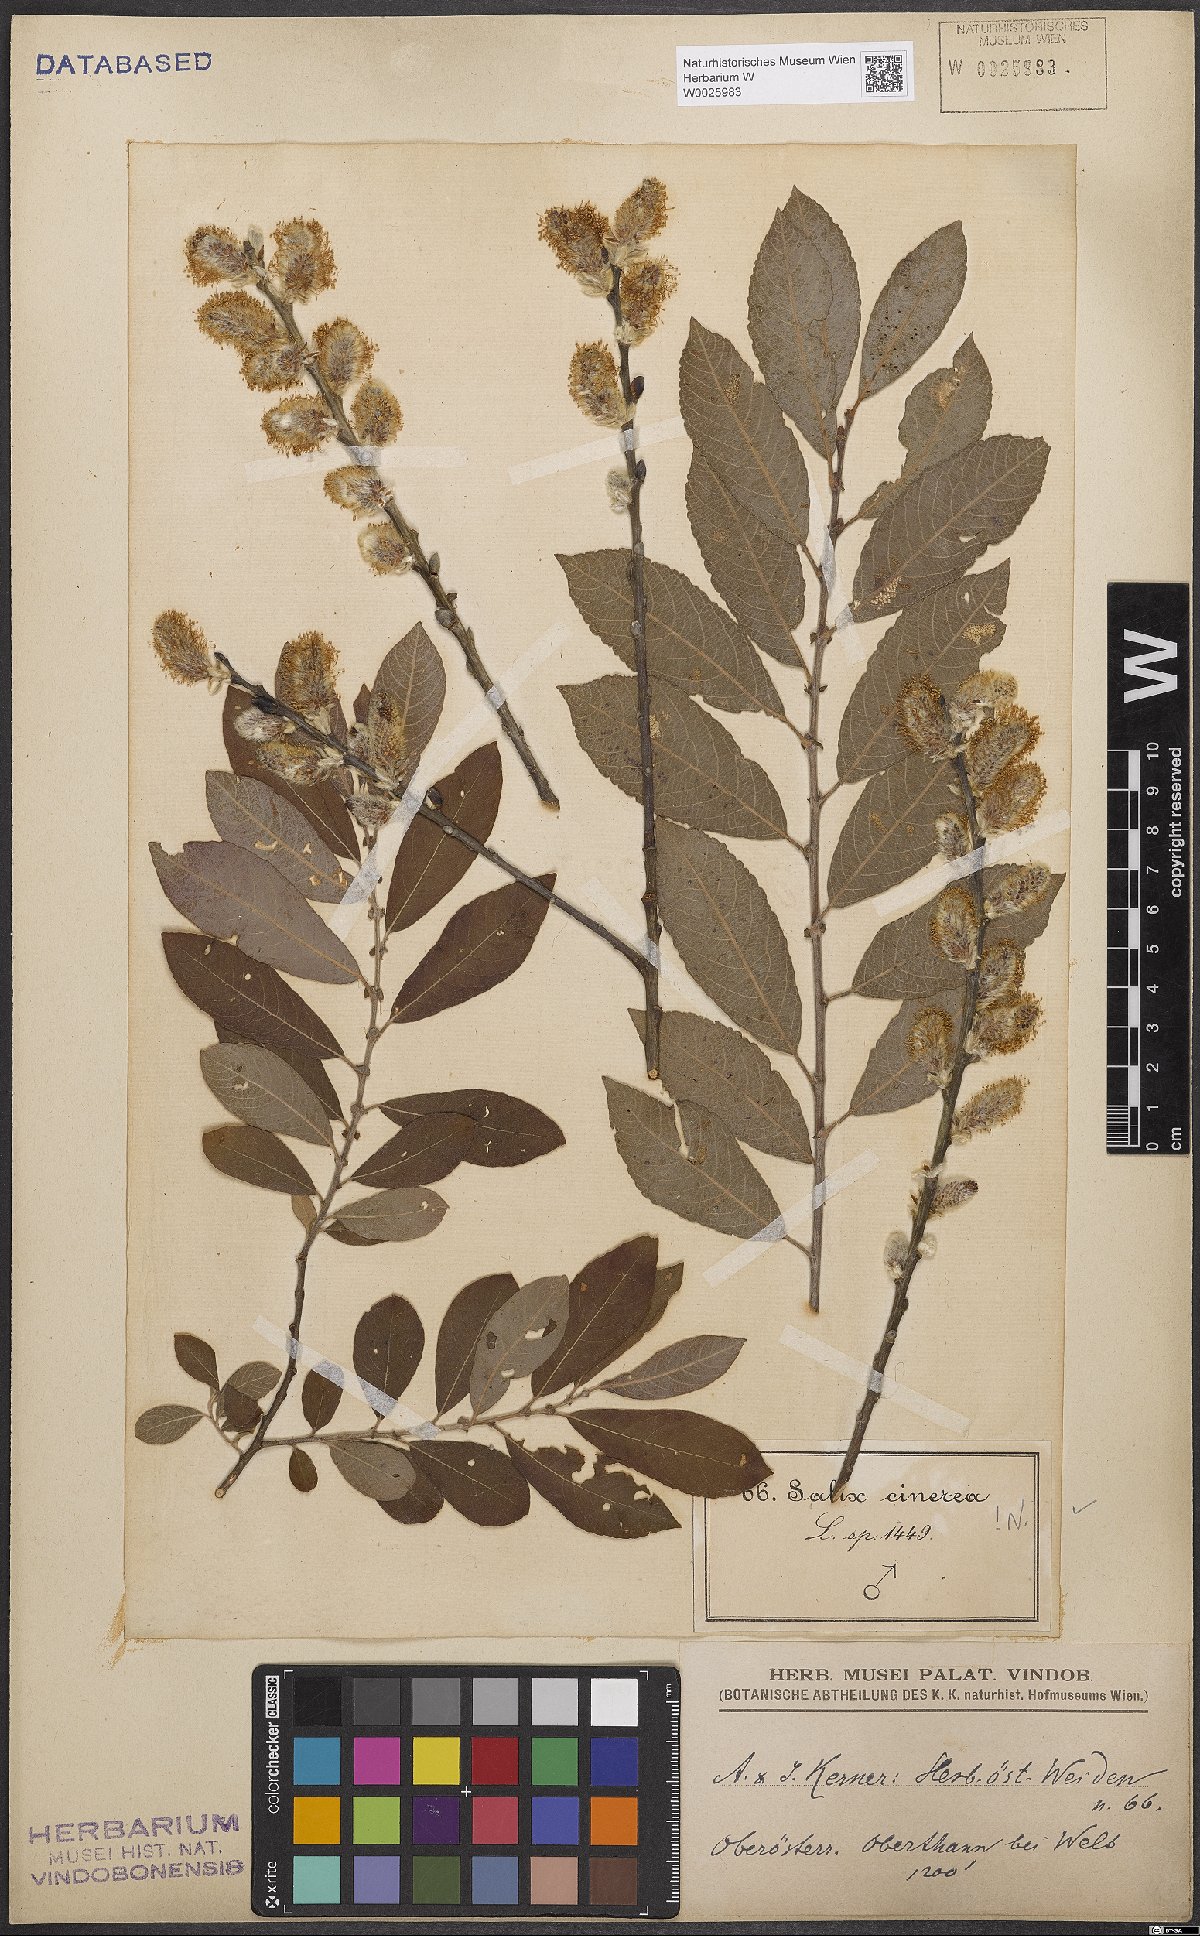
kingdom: Plantae
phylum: Tracheophyta
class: Magnoliopsida
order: Malpighiales
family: Salicaceae
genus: Salix
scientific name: Salix cinerea
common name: Common sallow
